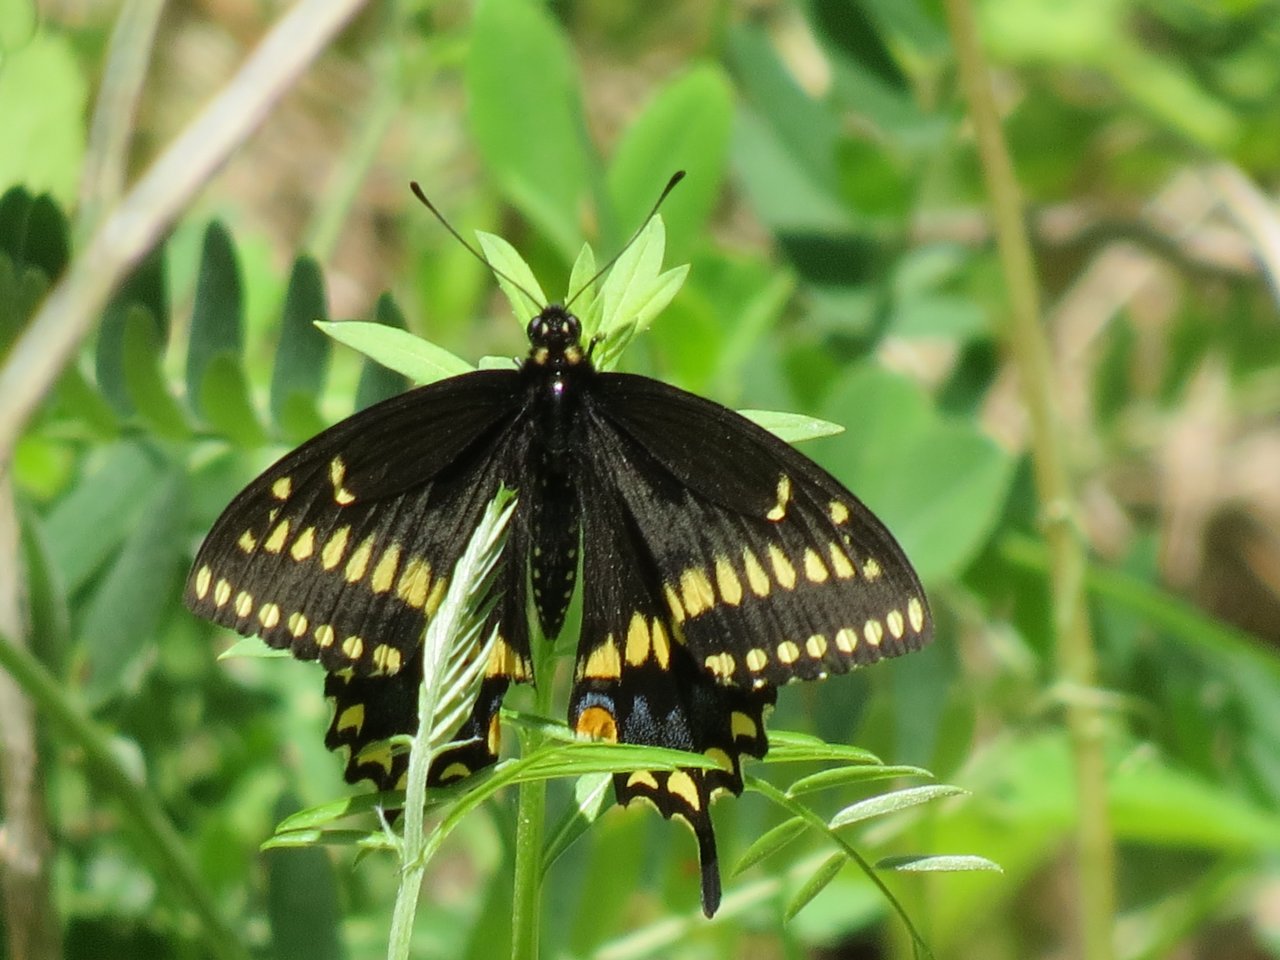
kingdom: Animalia
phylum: Arthropoda
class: Insecta
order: Lepidoptera
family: Papilionidae
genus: Papilio
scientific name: Papilio polyxenes
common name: Black Swallowtail
